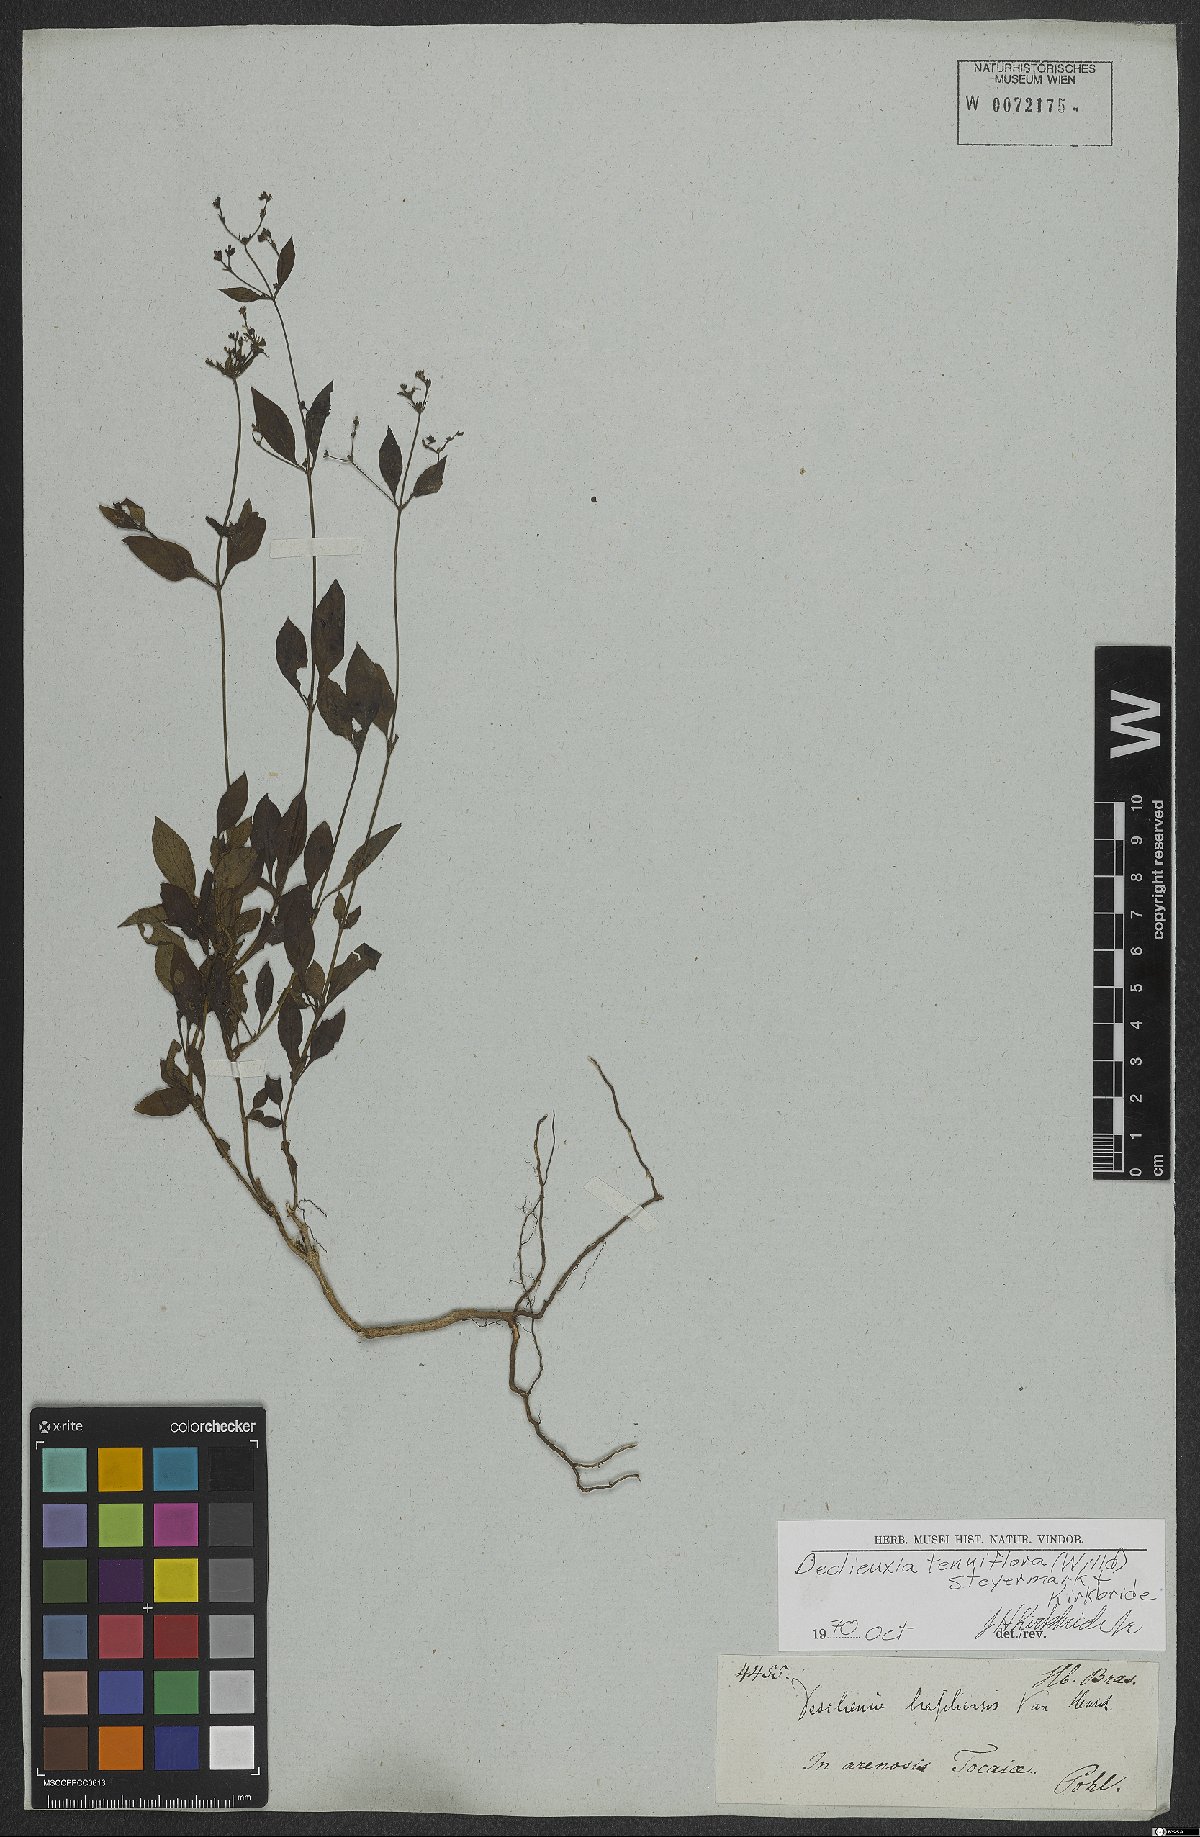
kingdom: Plantae
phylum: Tracheophyta
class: Magnoliopsida
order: Gentianales
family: Rubiaceae
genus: Declieuxia
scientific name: Declieuxia tenuiflora
